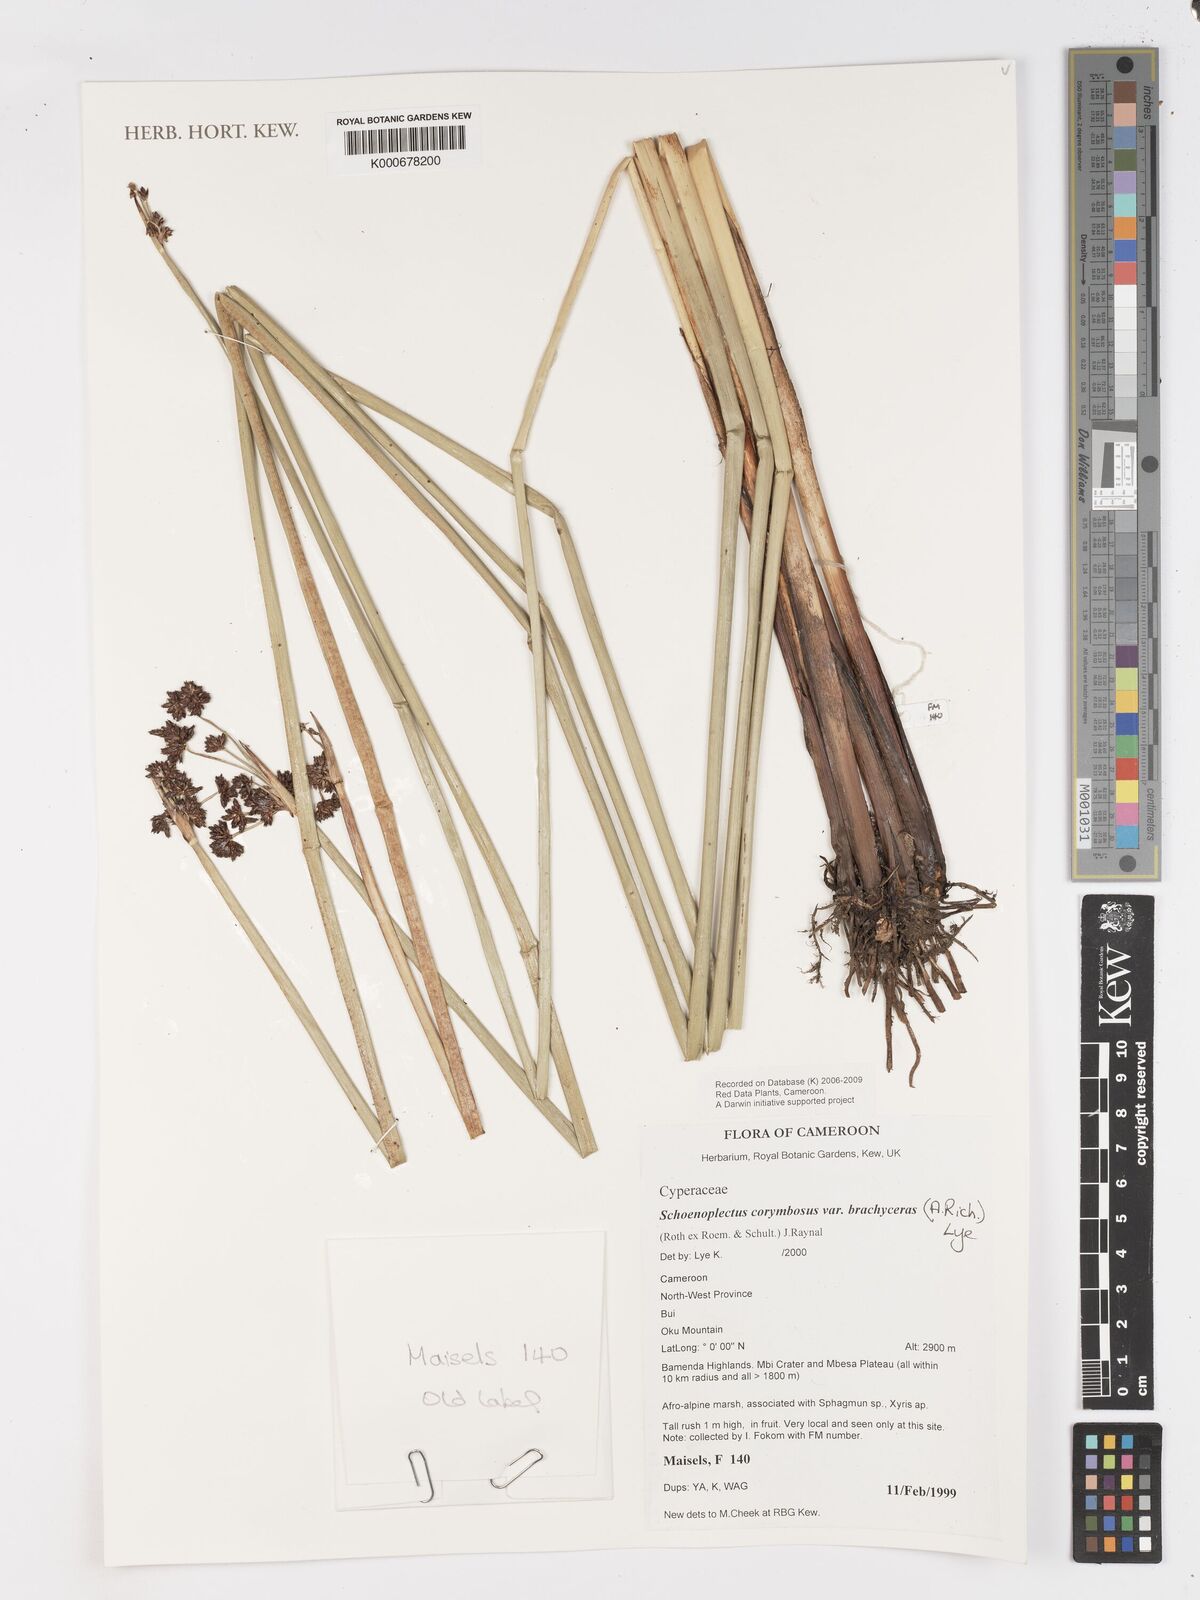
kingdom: Plantae
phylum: Tracheophyta
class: Liliopsida
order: Poales
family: Cyperaceae
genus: Schoenoplectiella
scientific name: Schoenoplectiella brachyceras
